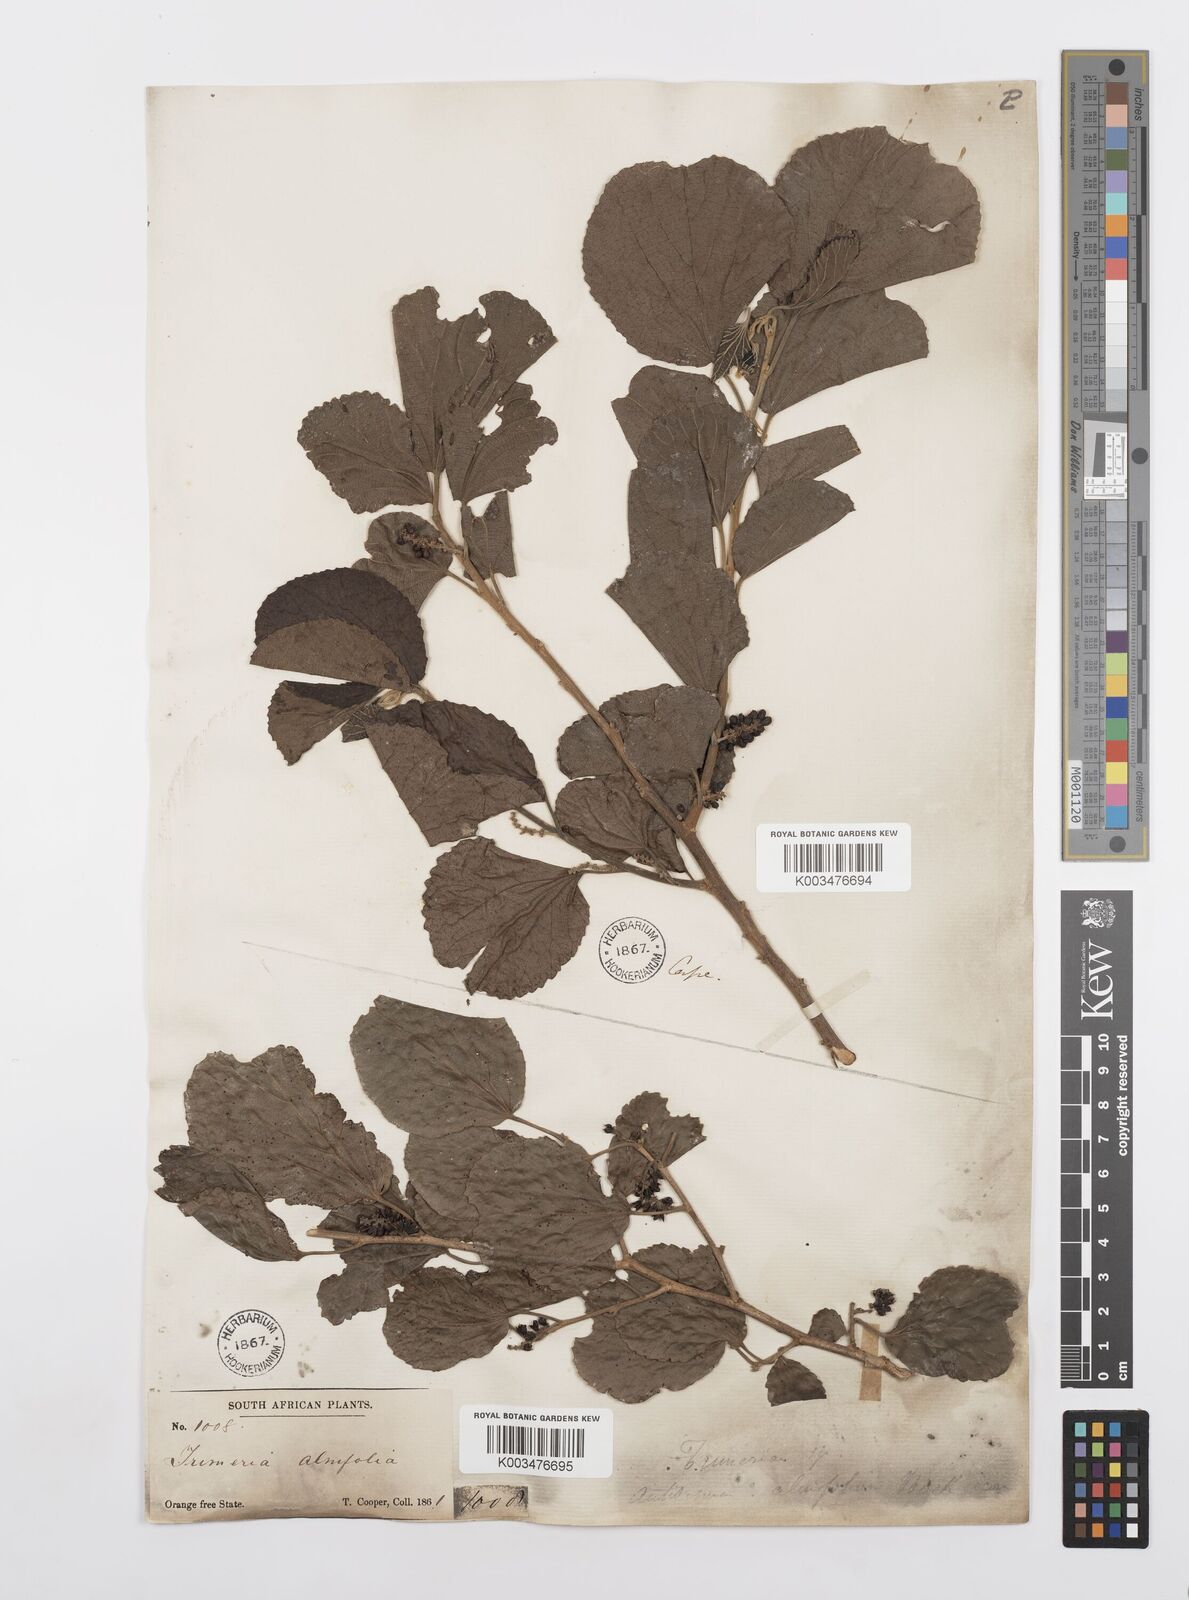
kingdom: Plantae
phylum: Tracheophyta
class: Magnoliopsida
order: Malpighiales
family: Salicaceae
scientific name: Salicaceae
